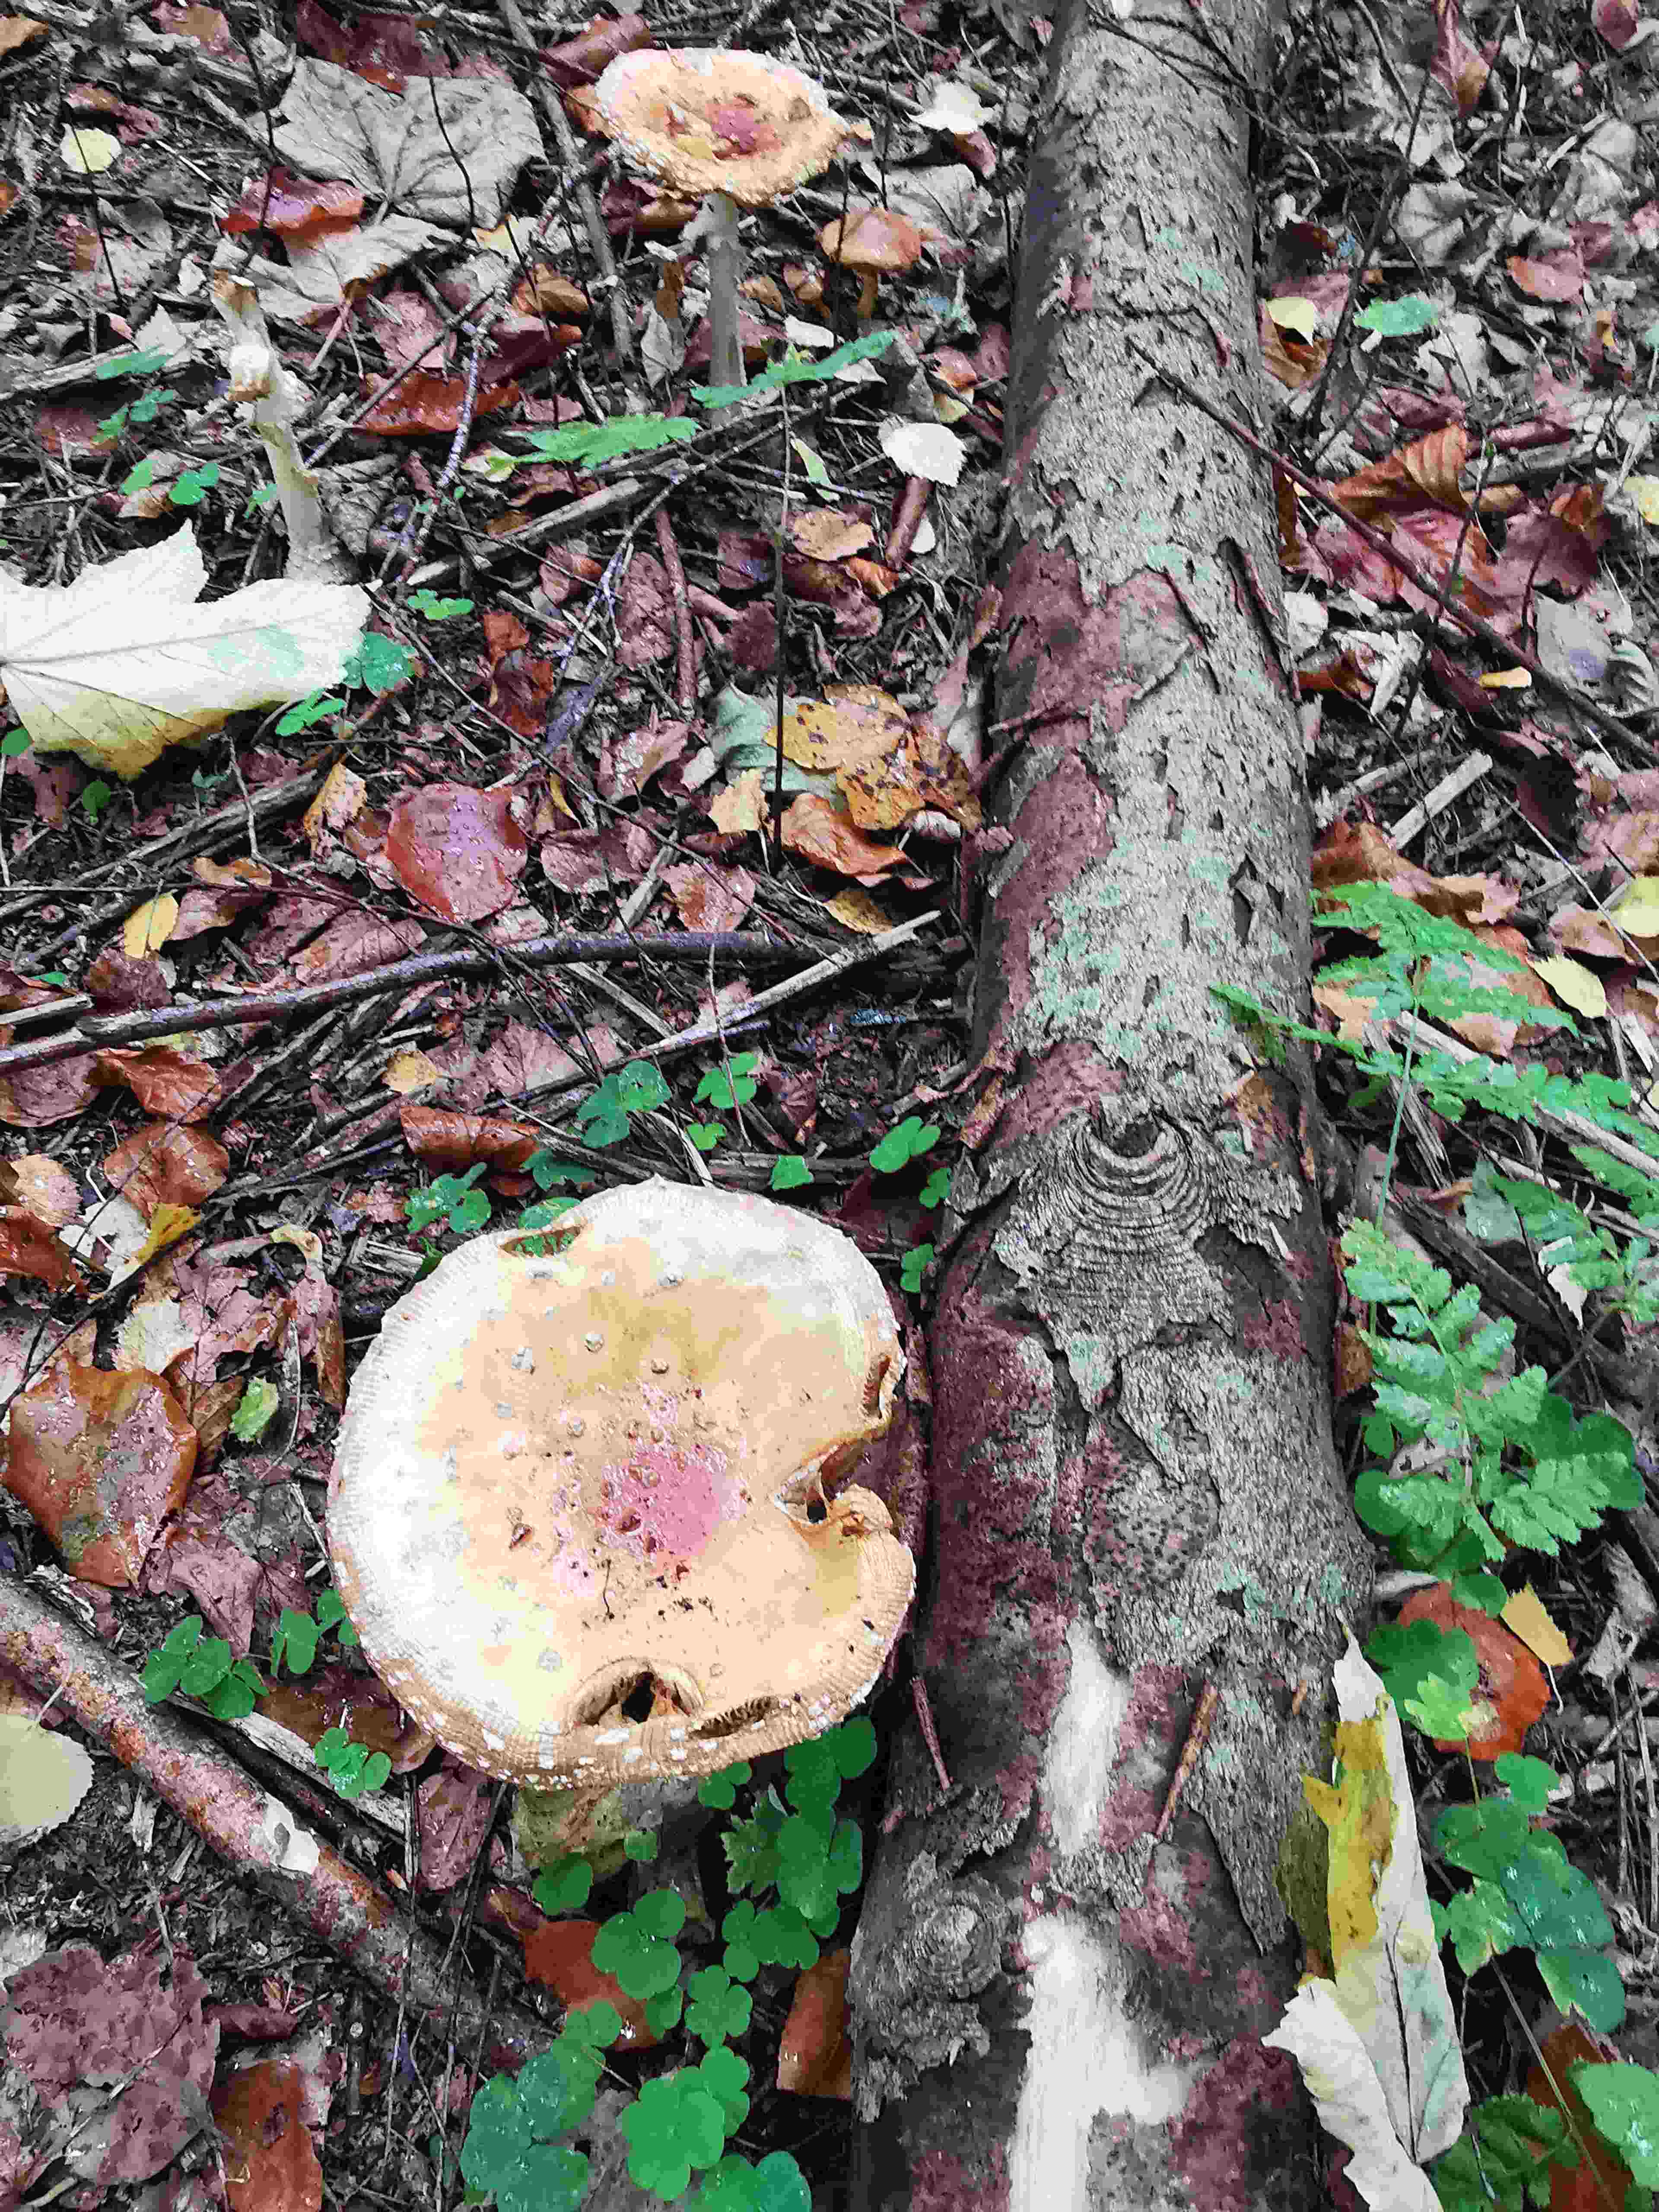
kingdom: Fungi
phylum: Basidiomycota
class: Agaricomycetes
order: Agaricales
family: Amanitaceae
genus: Amanita
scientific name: Amanita muscaria
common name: rød fluesvamp
